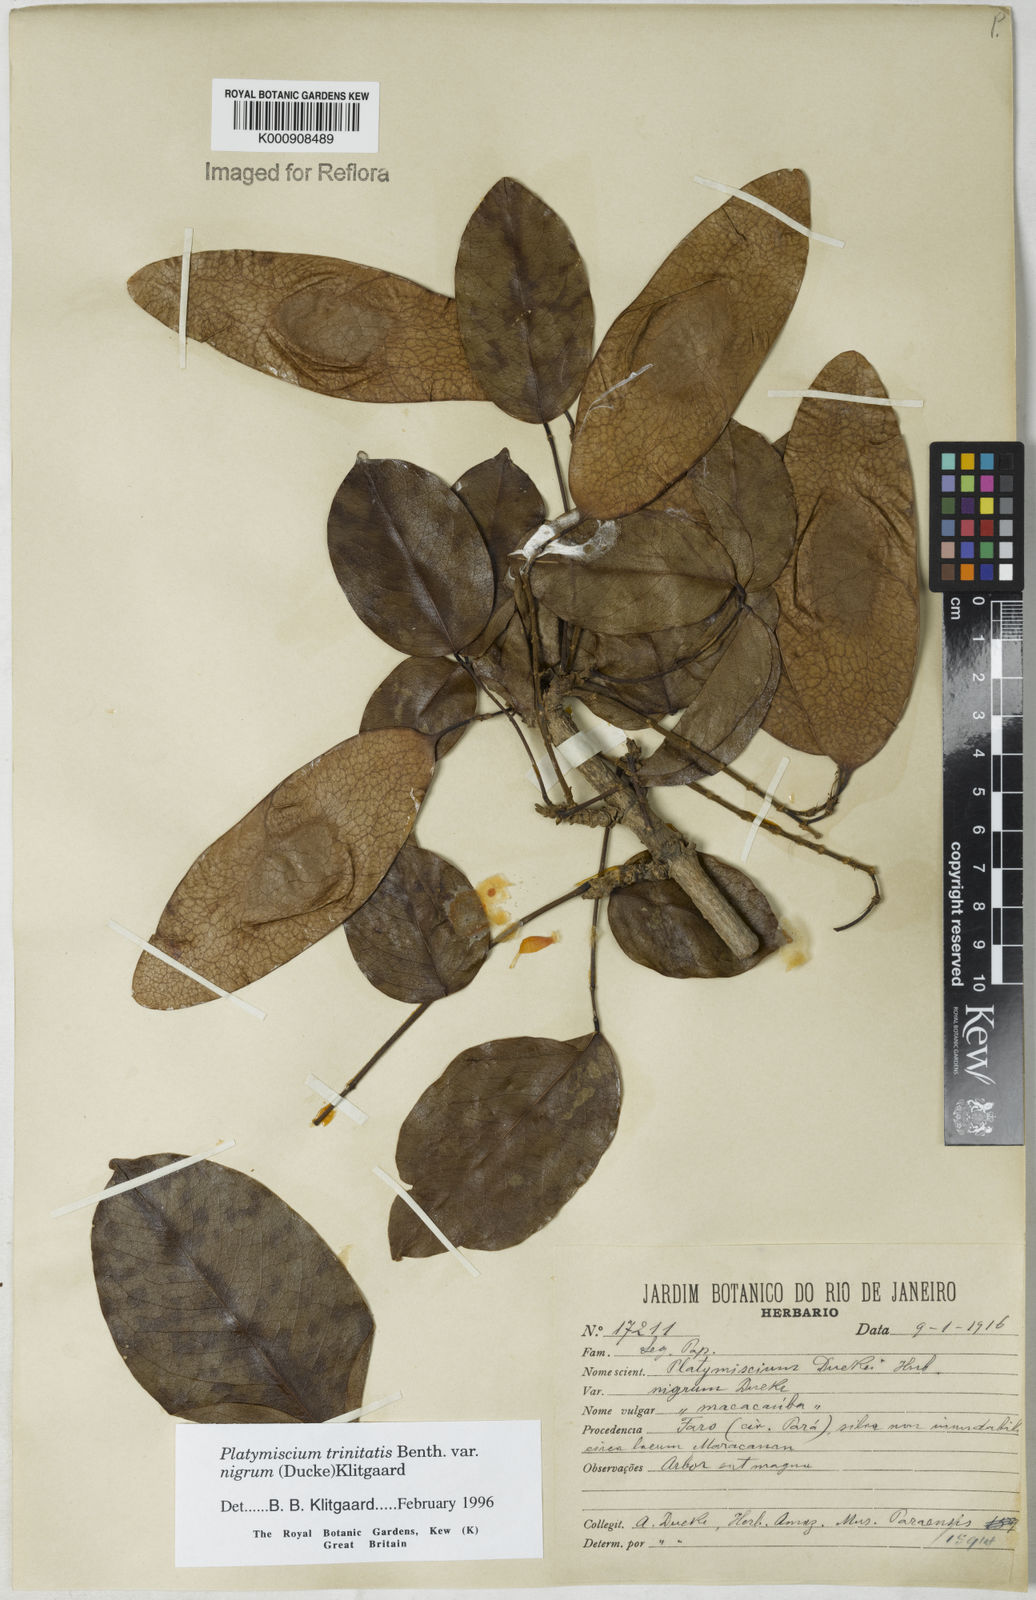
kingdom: Plantae
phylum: Tracheophyta
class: Magnoliopsida
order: Fabales
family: Fabaceae
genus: Platymiscium
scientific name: Platymiscium trinitatis
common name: Trinidad macawood
